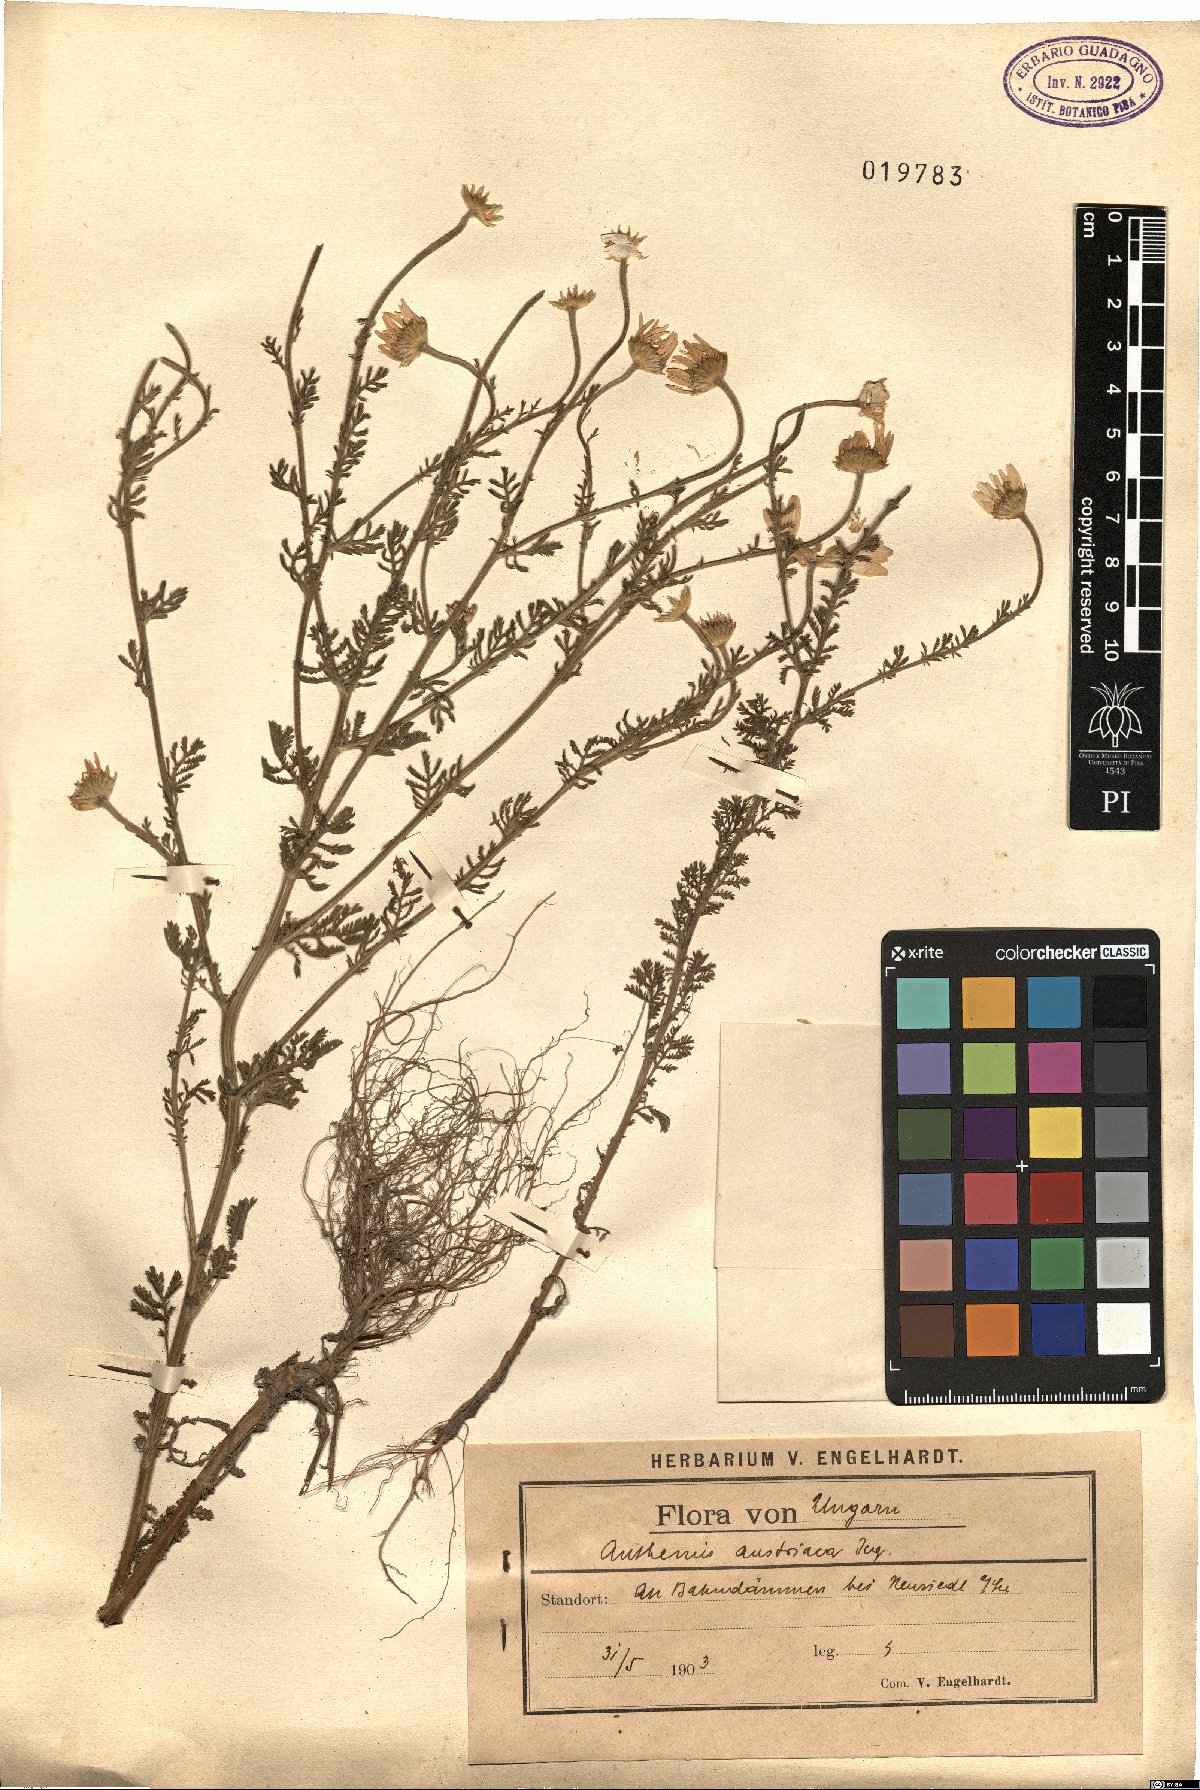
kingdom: Plantae
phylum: Tracheophyta
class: Magnoliopsida
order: Asterales
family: Asteraceae
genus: Cota
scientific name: Cota austriaca
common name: Austrian chamomile
